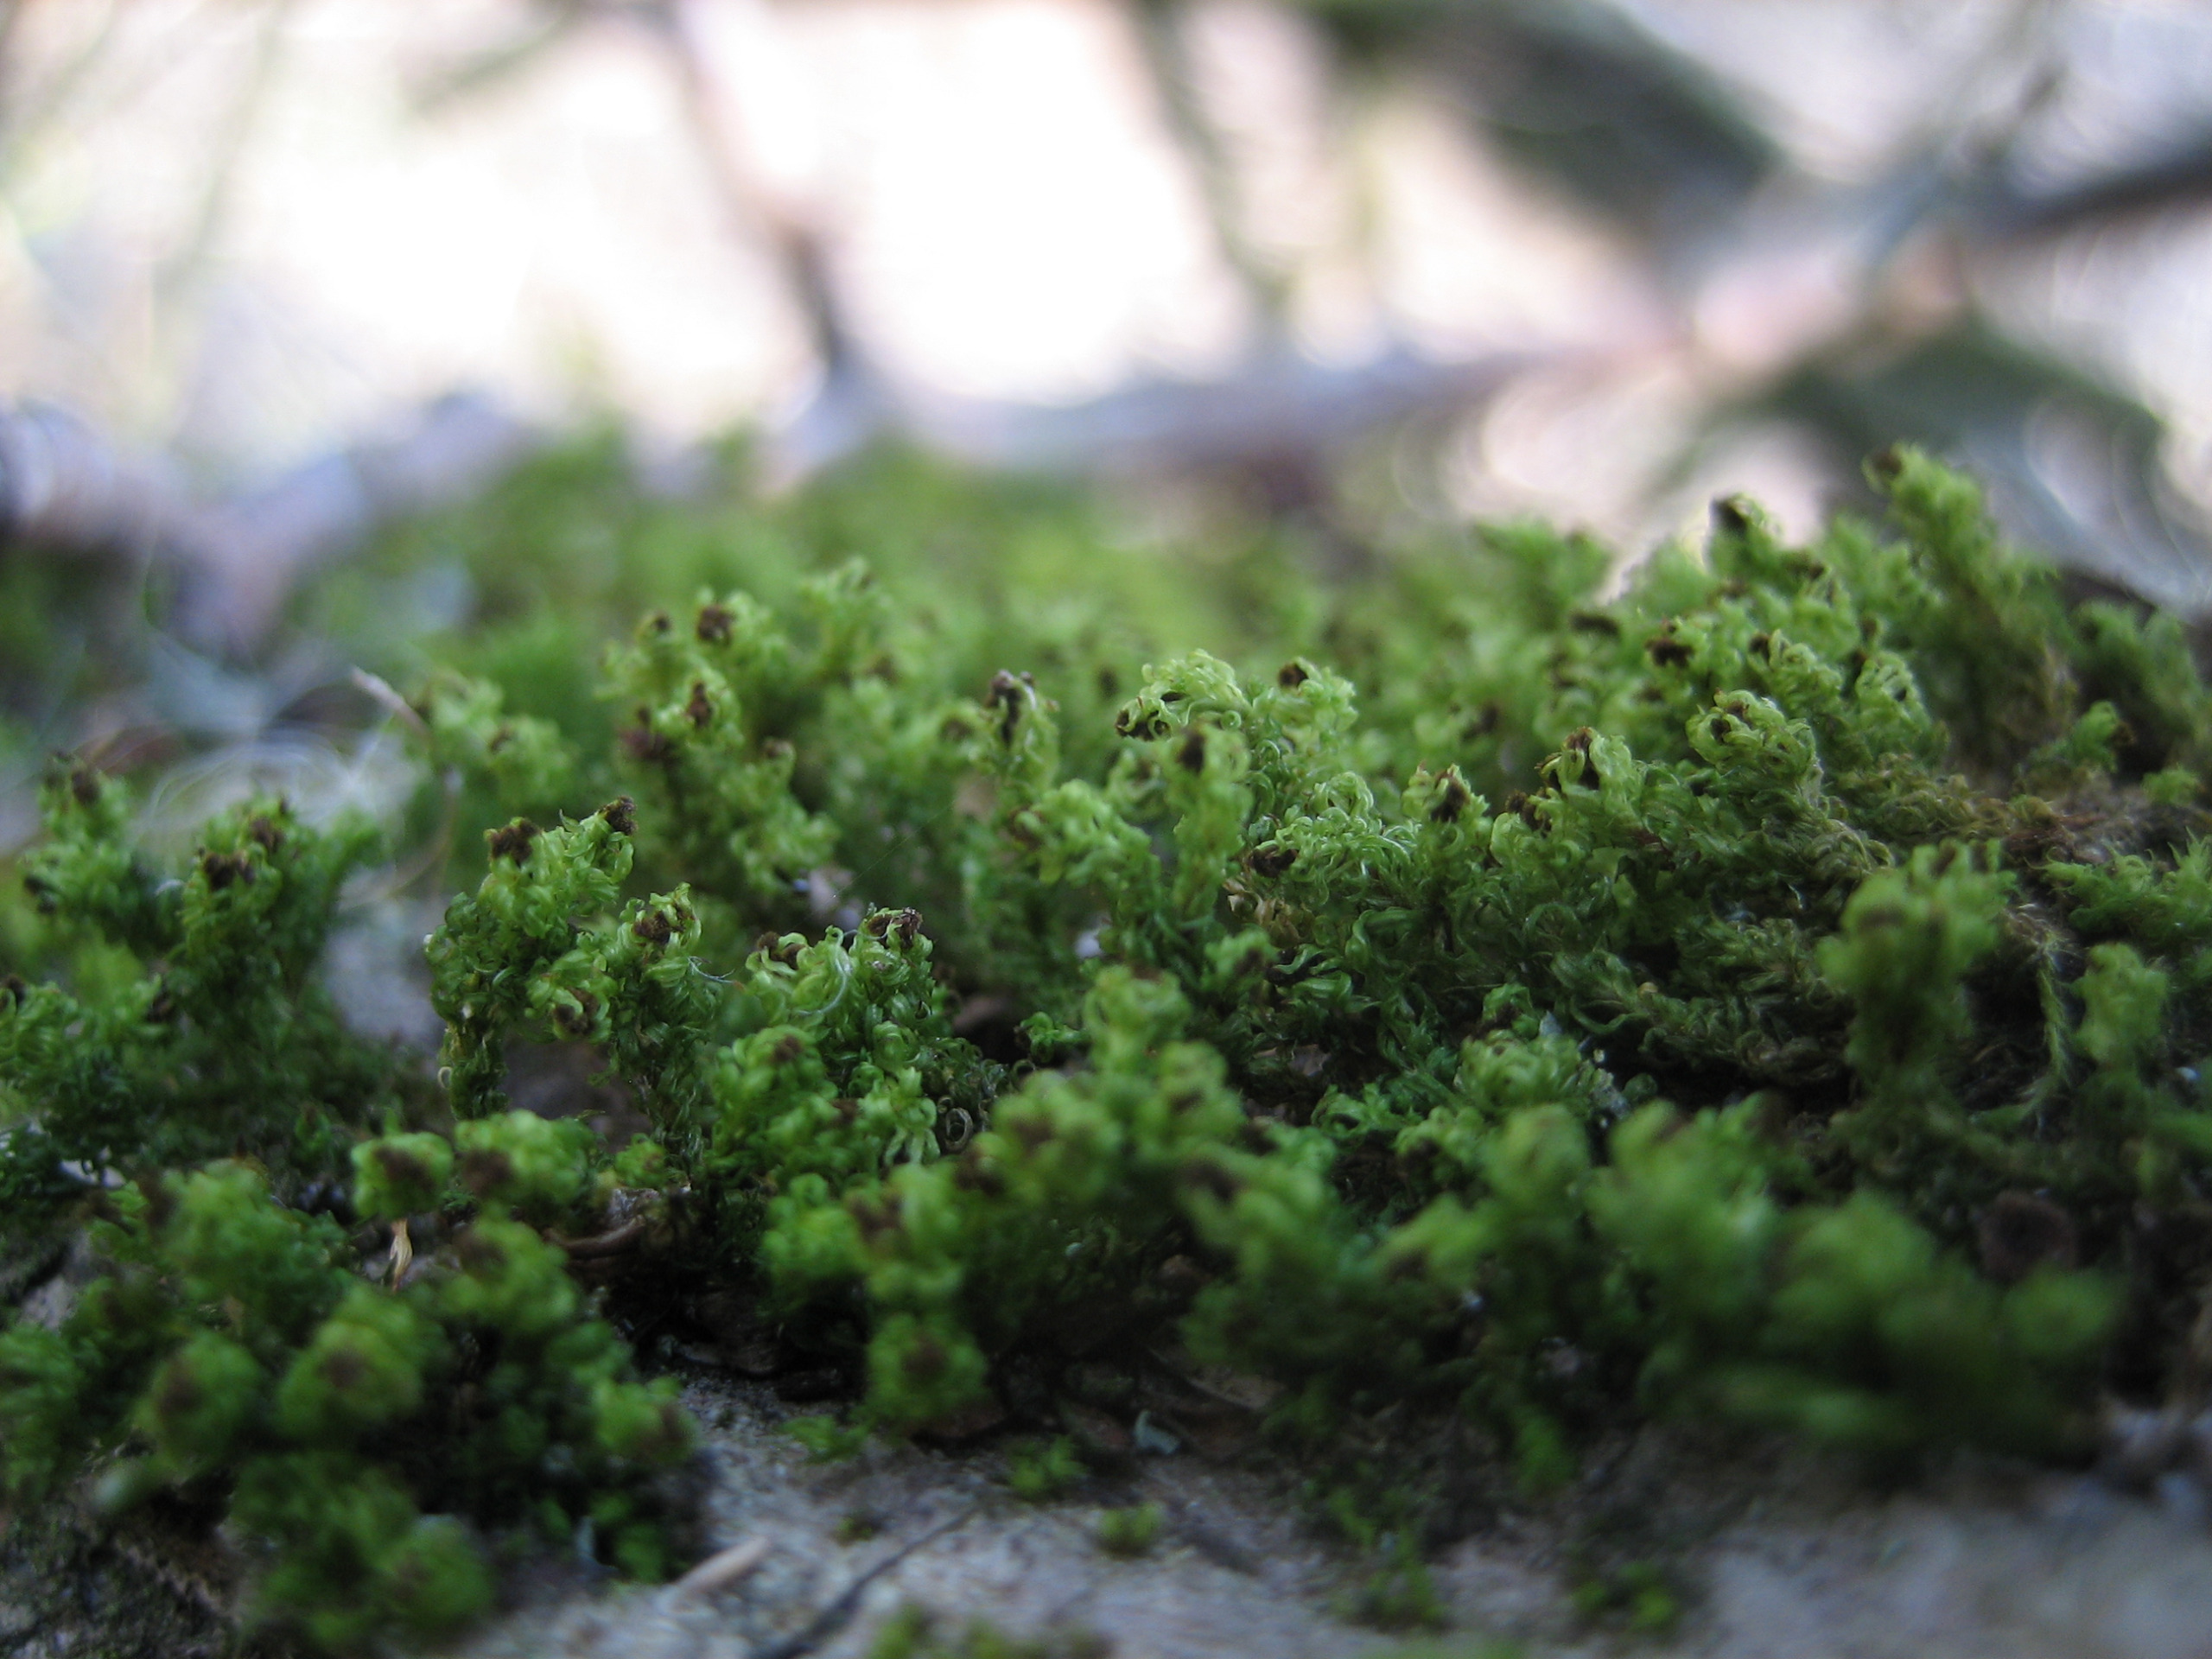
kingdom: Plantae
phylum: Bryophyta
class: Bryopsida
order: Orthotrichales
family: Orthotrichaceae
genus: Plenogemma
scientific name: Plenogemma phyllantha
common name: Stor låddenhætte
